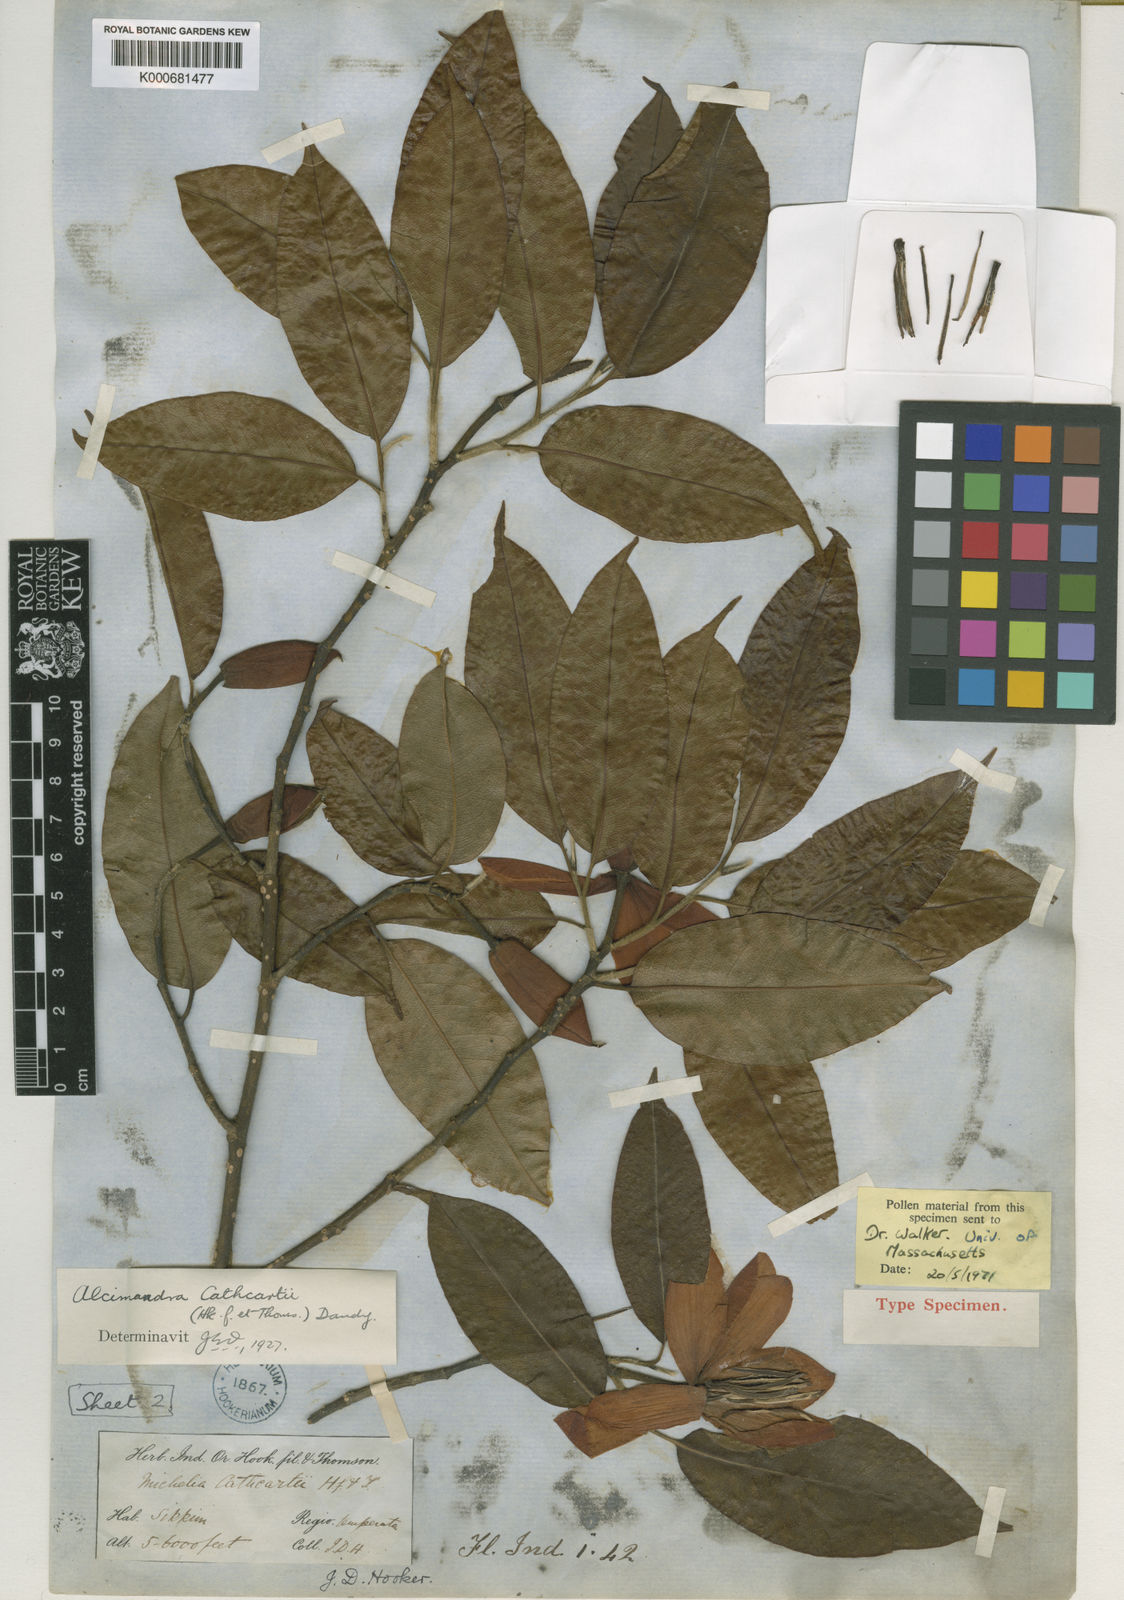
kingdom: Plantae
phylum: Tracheophyta
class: Magnoliopsida
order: Magnoliales
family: Magnoliaceae
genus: Magnolia
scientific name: Magnolia cathcartii
